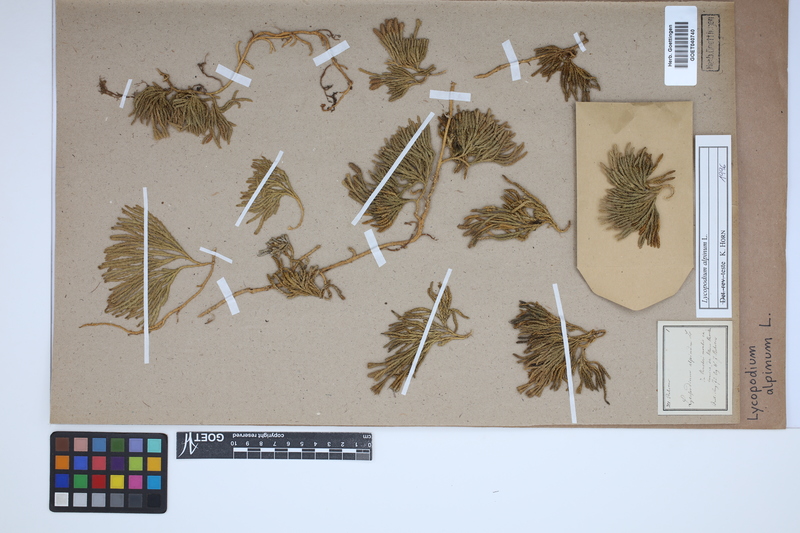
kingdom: Plantae
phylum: Tracheophyta
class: Lycopodiopsida
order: Lycopodiales
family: Lycopodiaceae
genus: Diphasiastrum
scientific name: Diphasiastrum alpinum
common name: Alpine clubmoss
